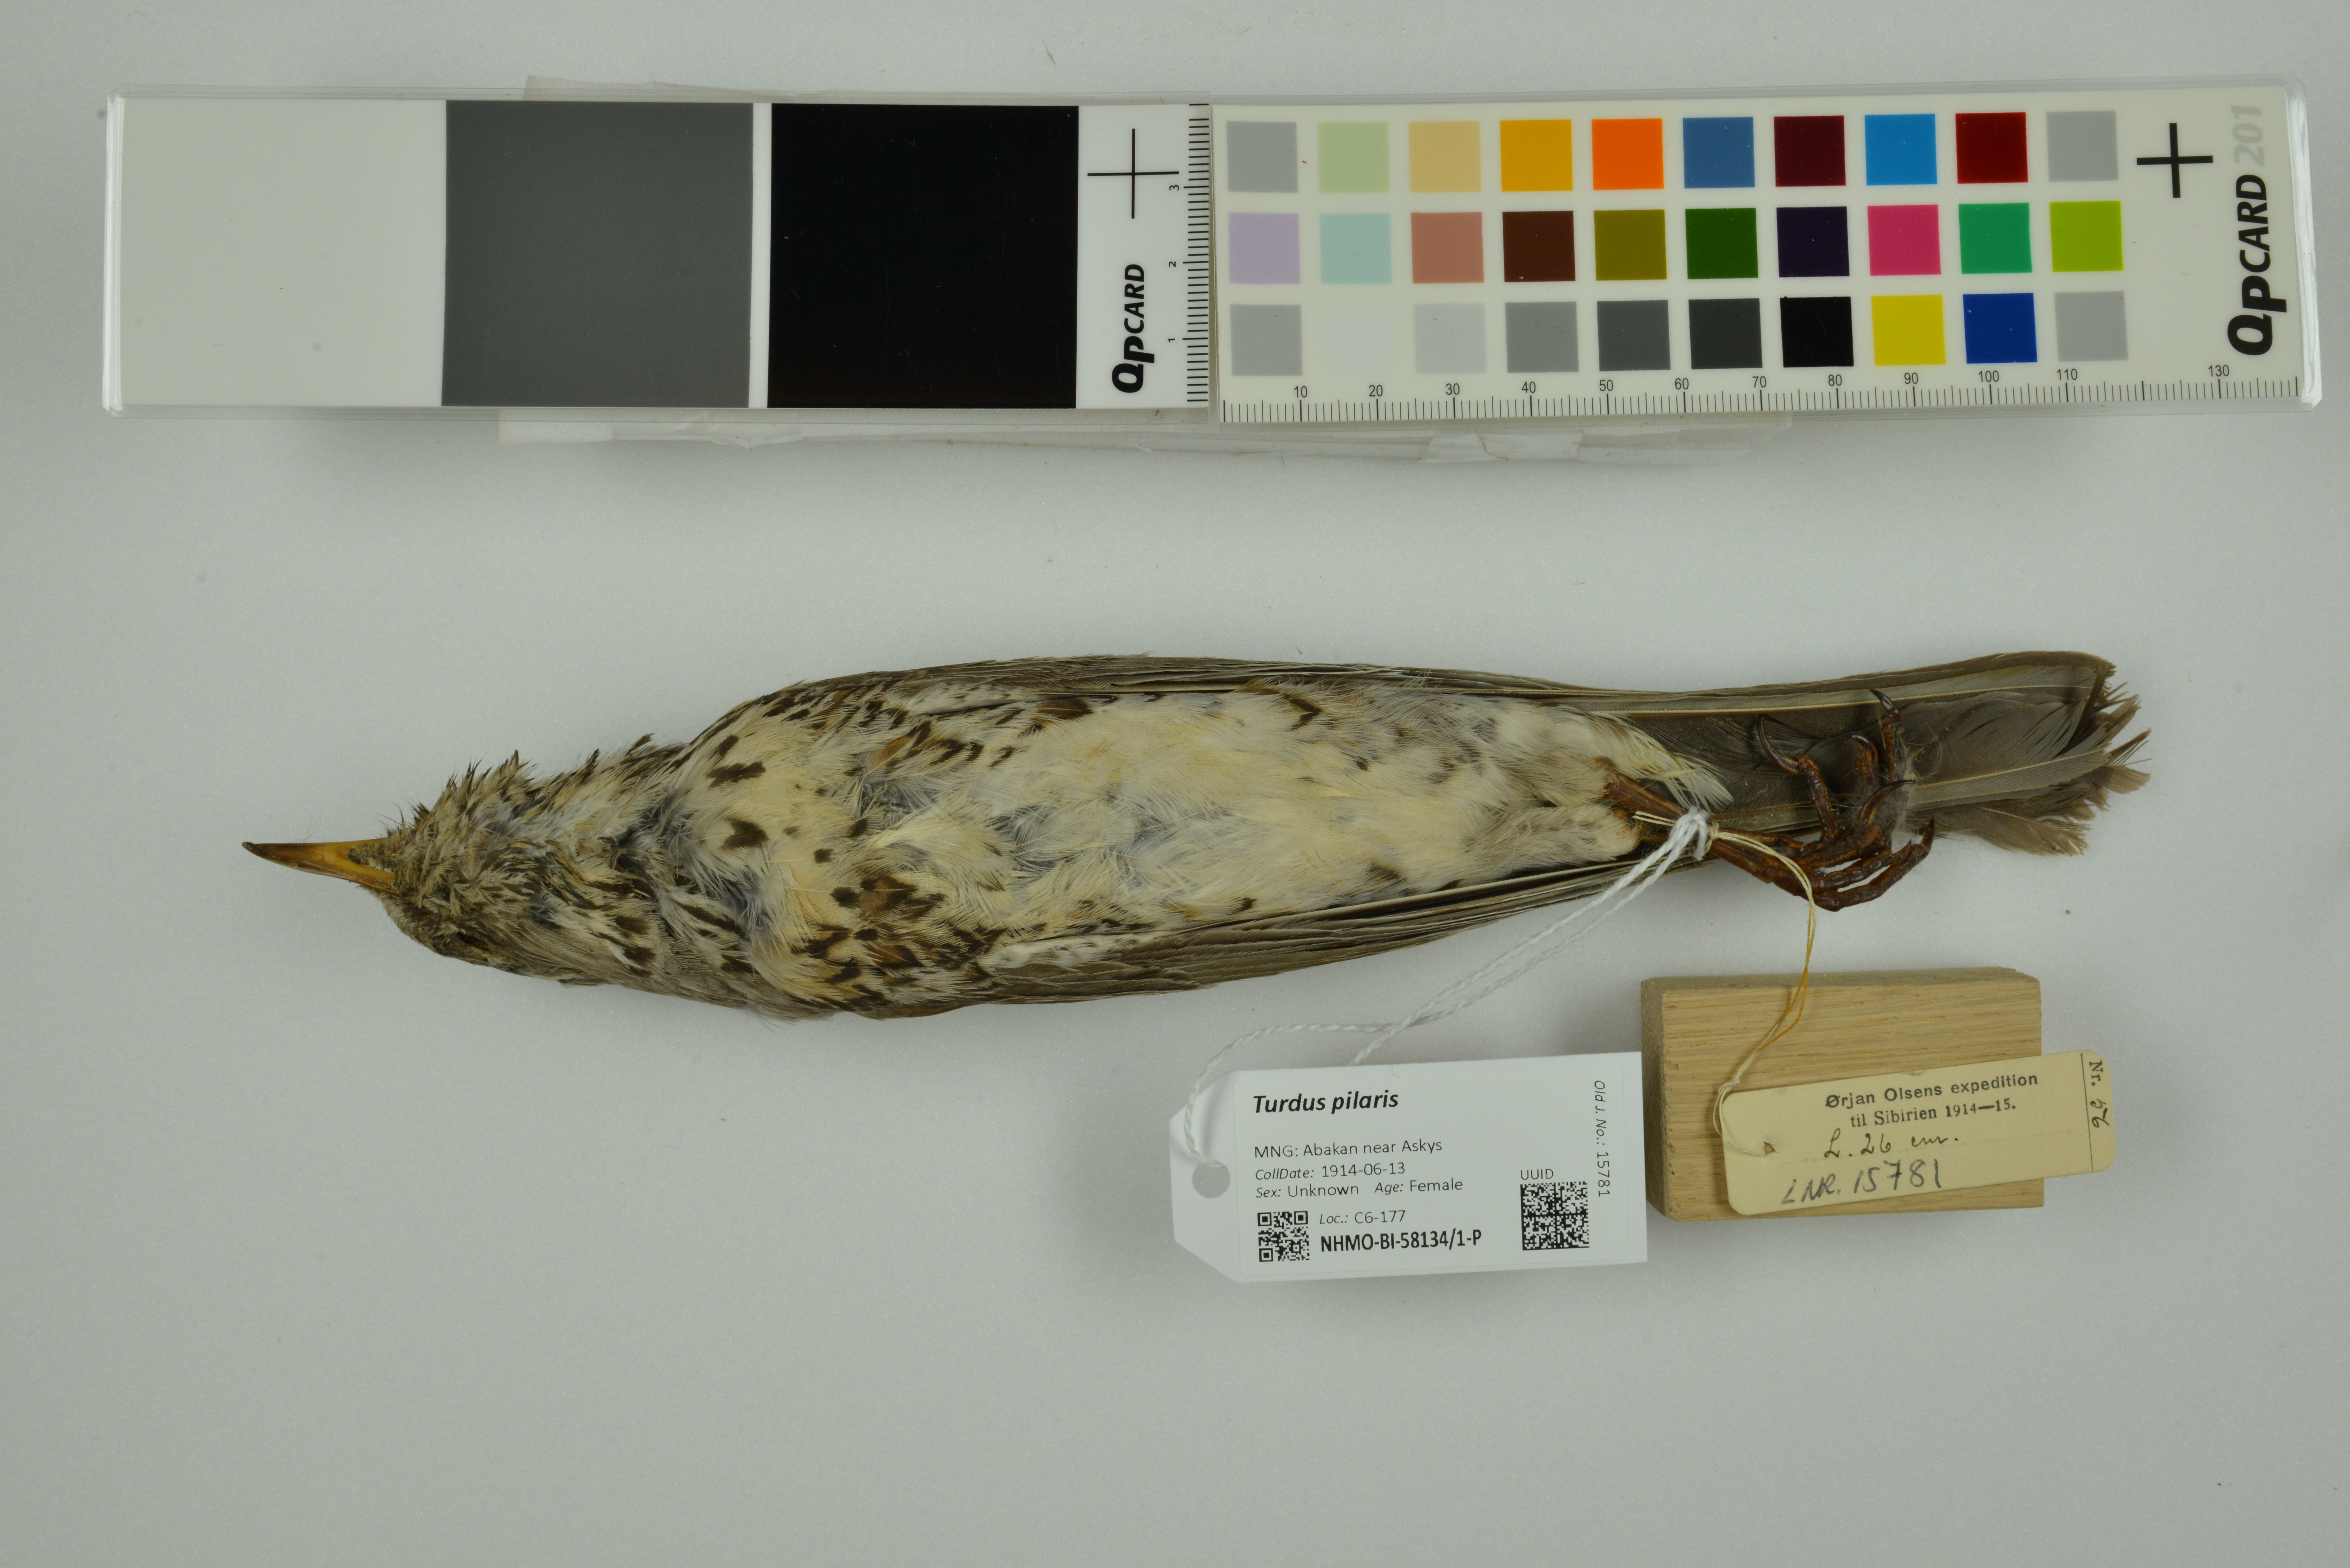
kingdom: Animalia
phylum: Chordata
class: Aves
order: Passeriformes
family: Turdidae
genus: Turdus
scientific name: Turdus pilaris
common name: Fieldfare
